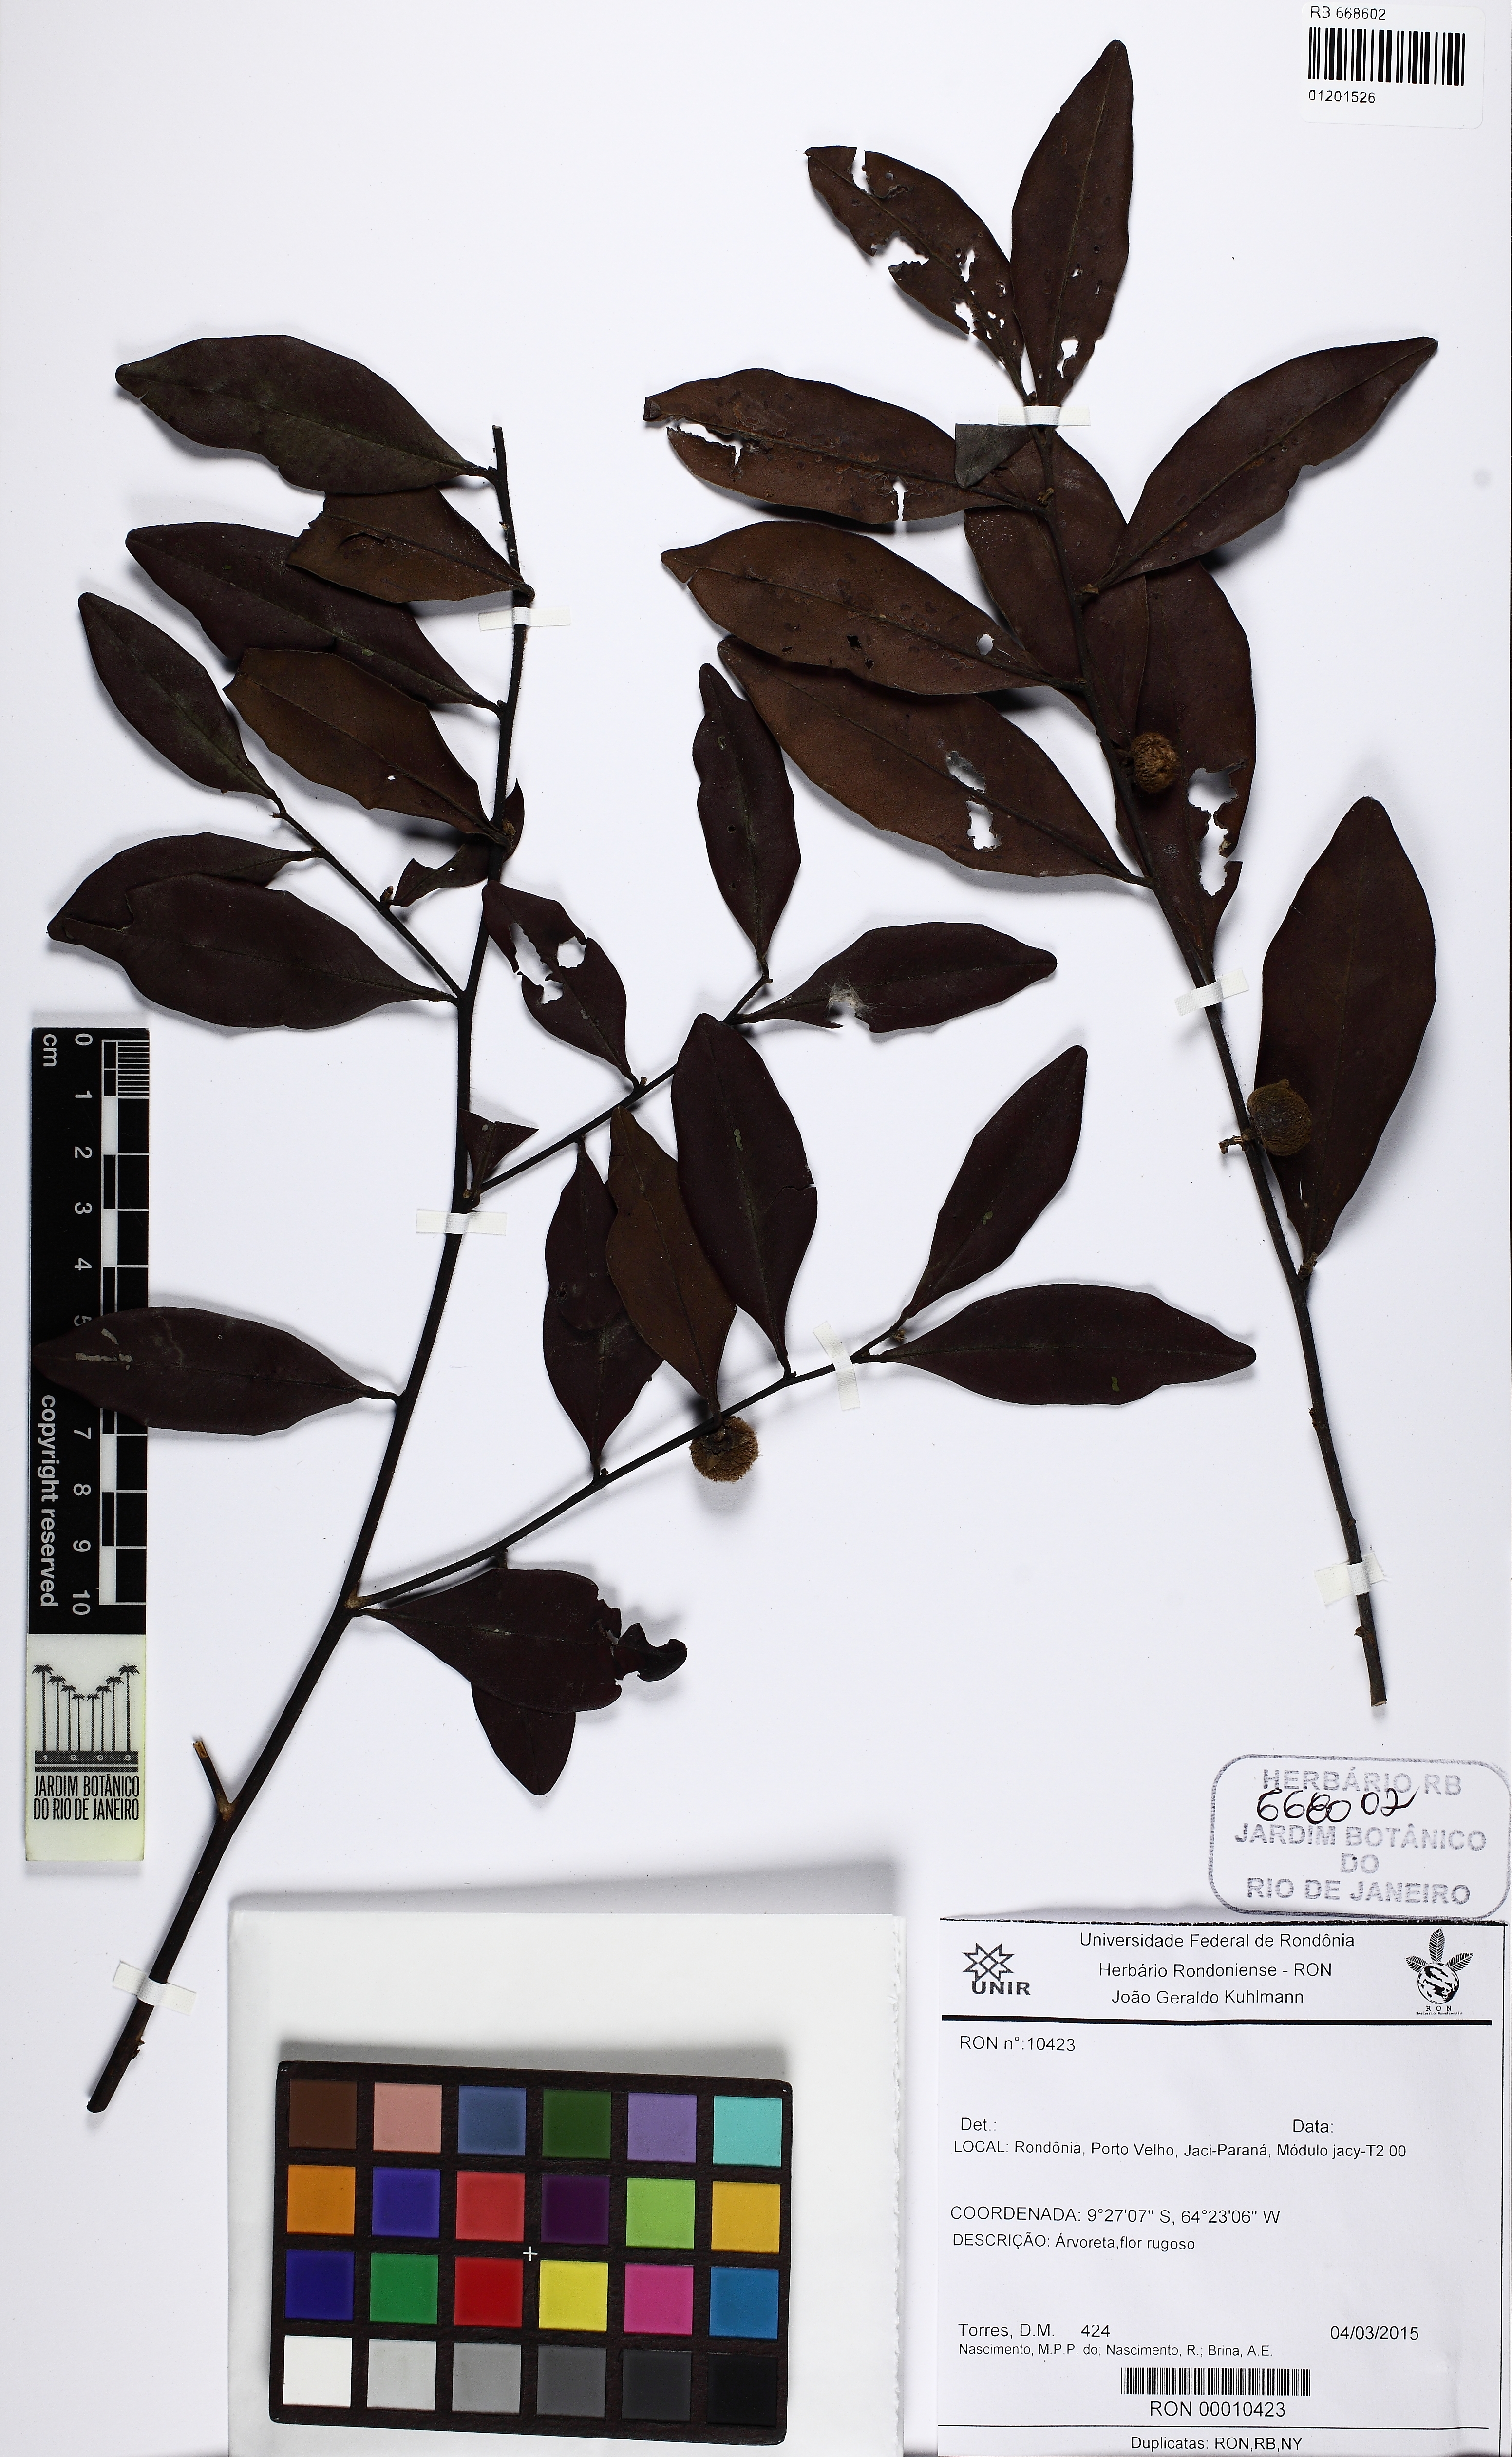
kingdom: Plantae
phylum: Tracheophyta
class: Magnoliopsida
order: Ericales
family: Ebenaceae
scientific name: Ebenaceae
